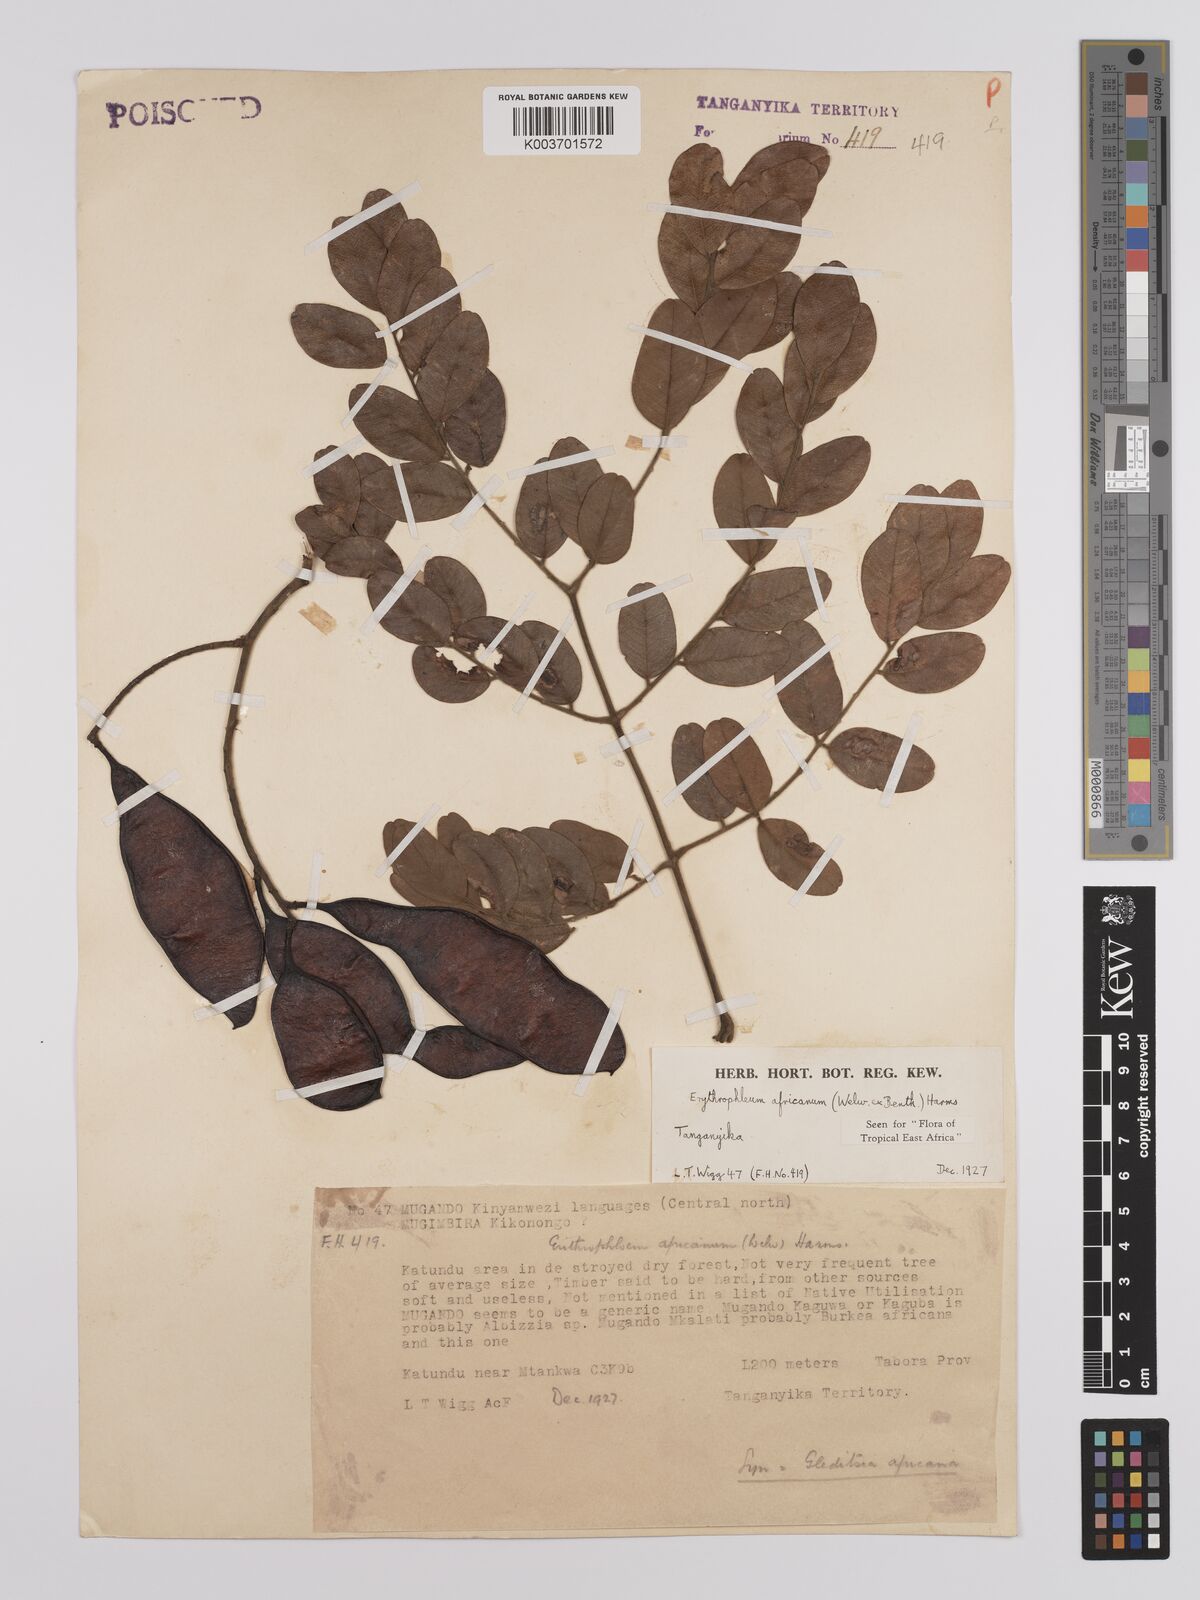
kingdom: Plantae
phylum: Tracheophyta
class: Magnoliopsida
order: Fabales
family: Fabaceae
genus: Erythrophleum
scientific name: Erythrophleum africanum
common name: African blackwood
